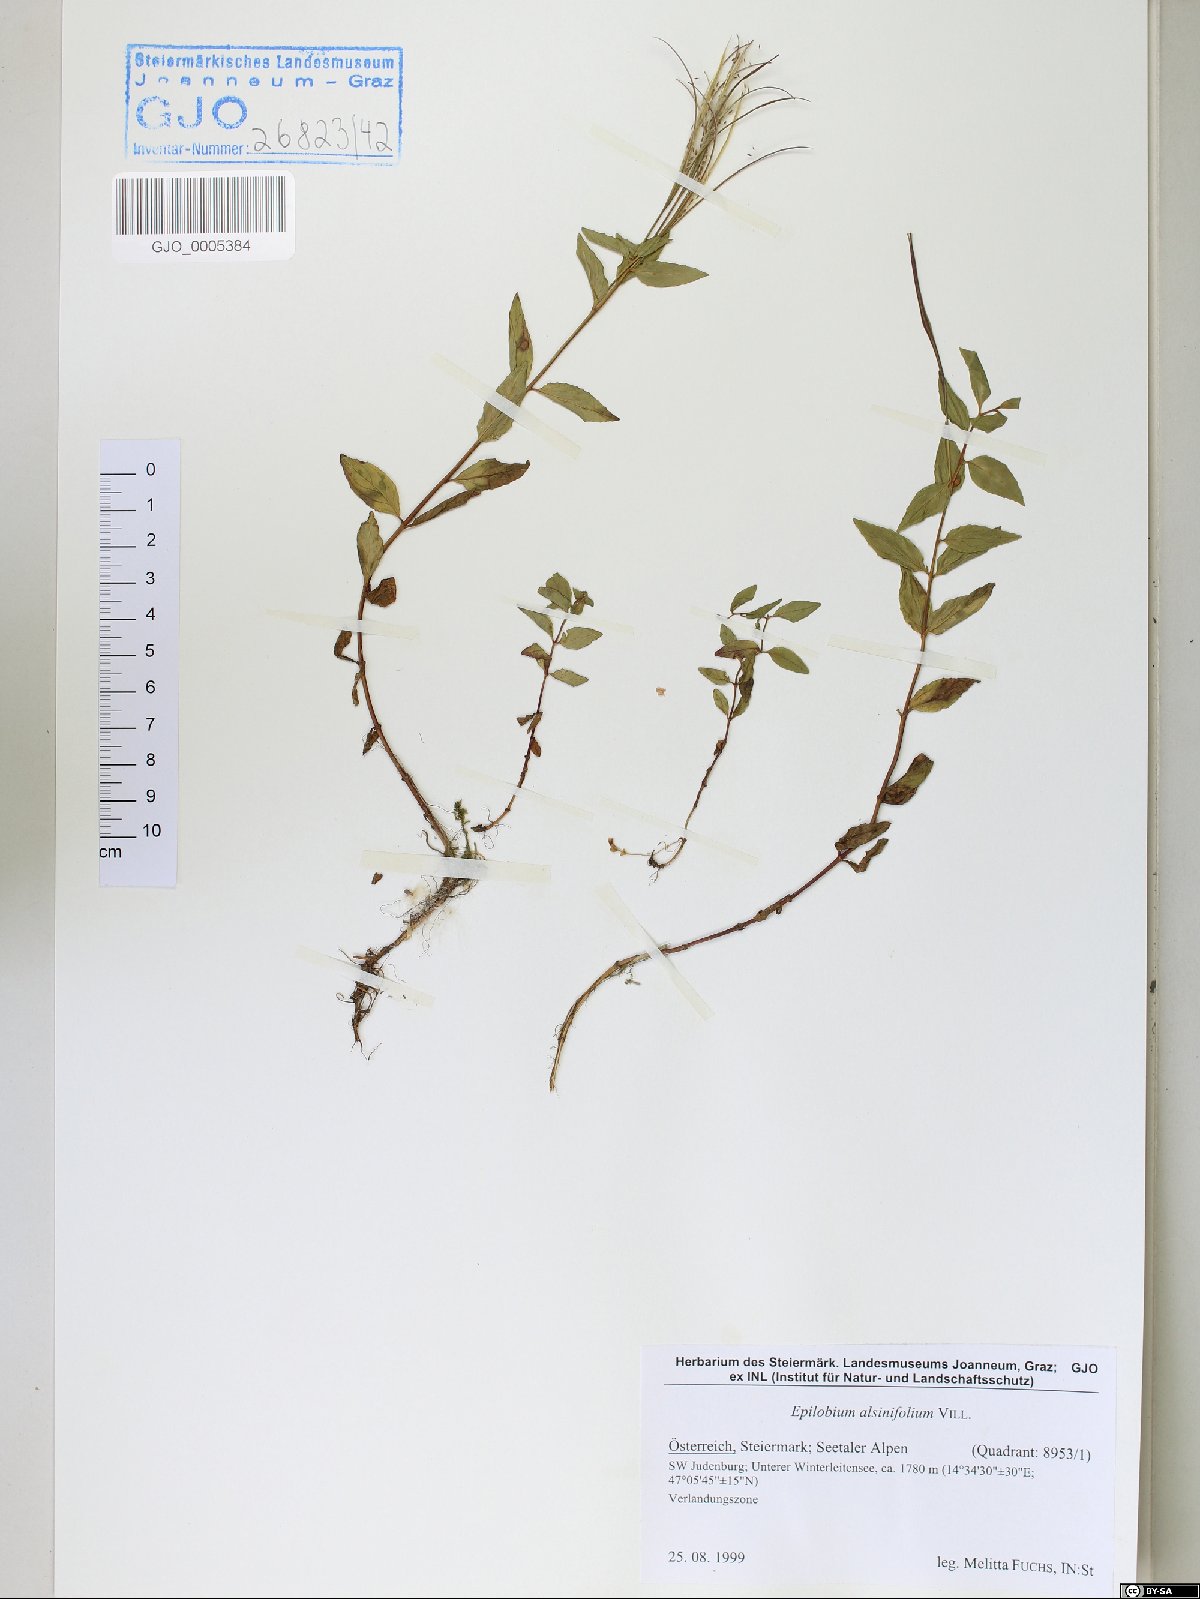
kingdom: Plantae
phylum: Tracheophyta
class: Magnoliopsida
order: Myrtales
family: Onagraceae
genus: Epilobium
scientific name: Epilobium alsinifolium
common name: Chickweed willowherb
